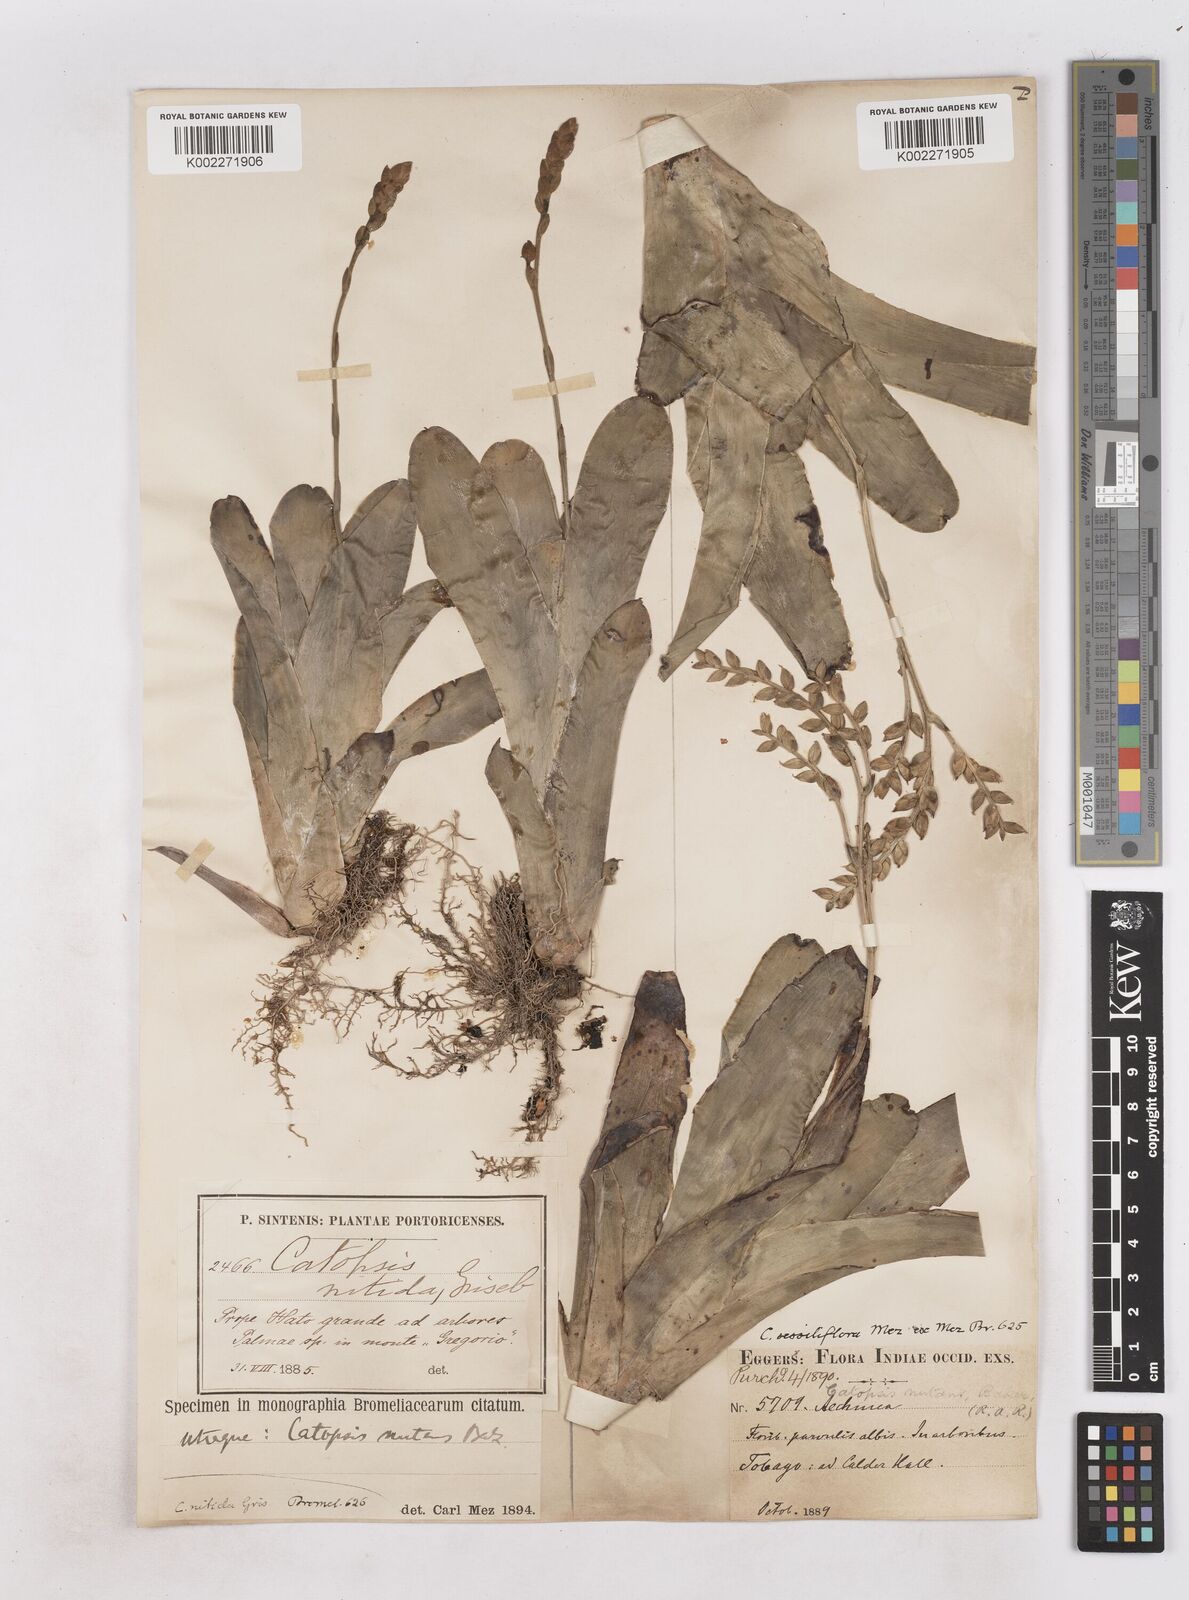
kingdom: Plantae
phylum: Tracheophyta
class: Liliopsida
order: Poales
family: Bromeliaceae
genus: Catopsis
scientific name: Catopsis sessiliflora
